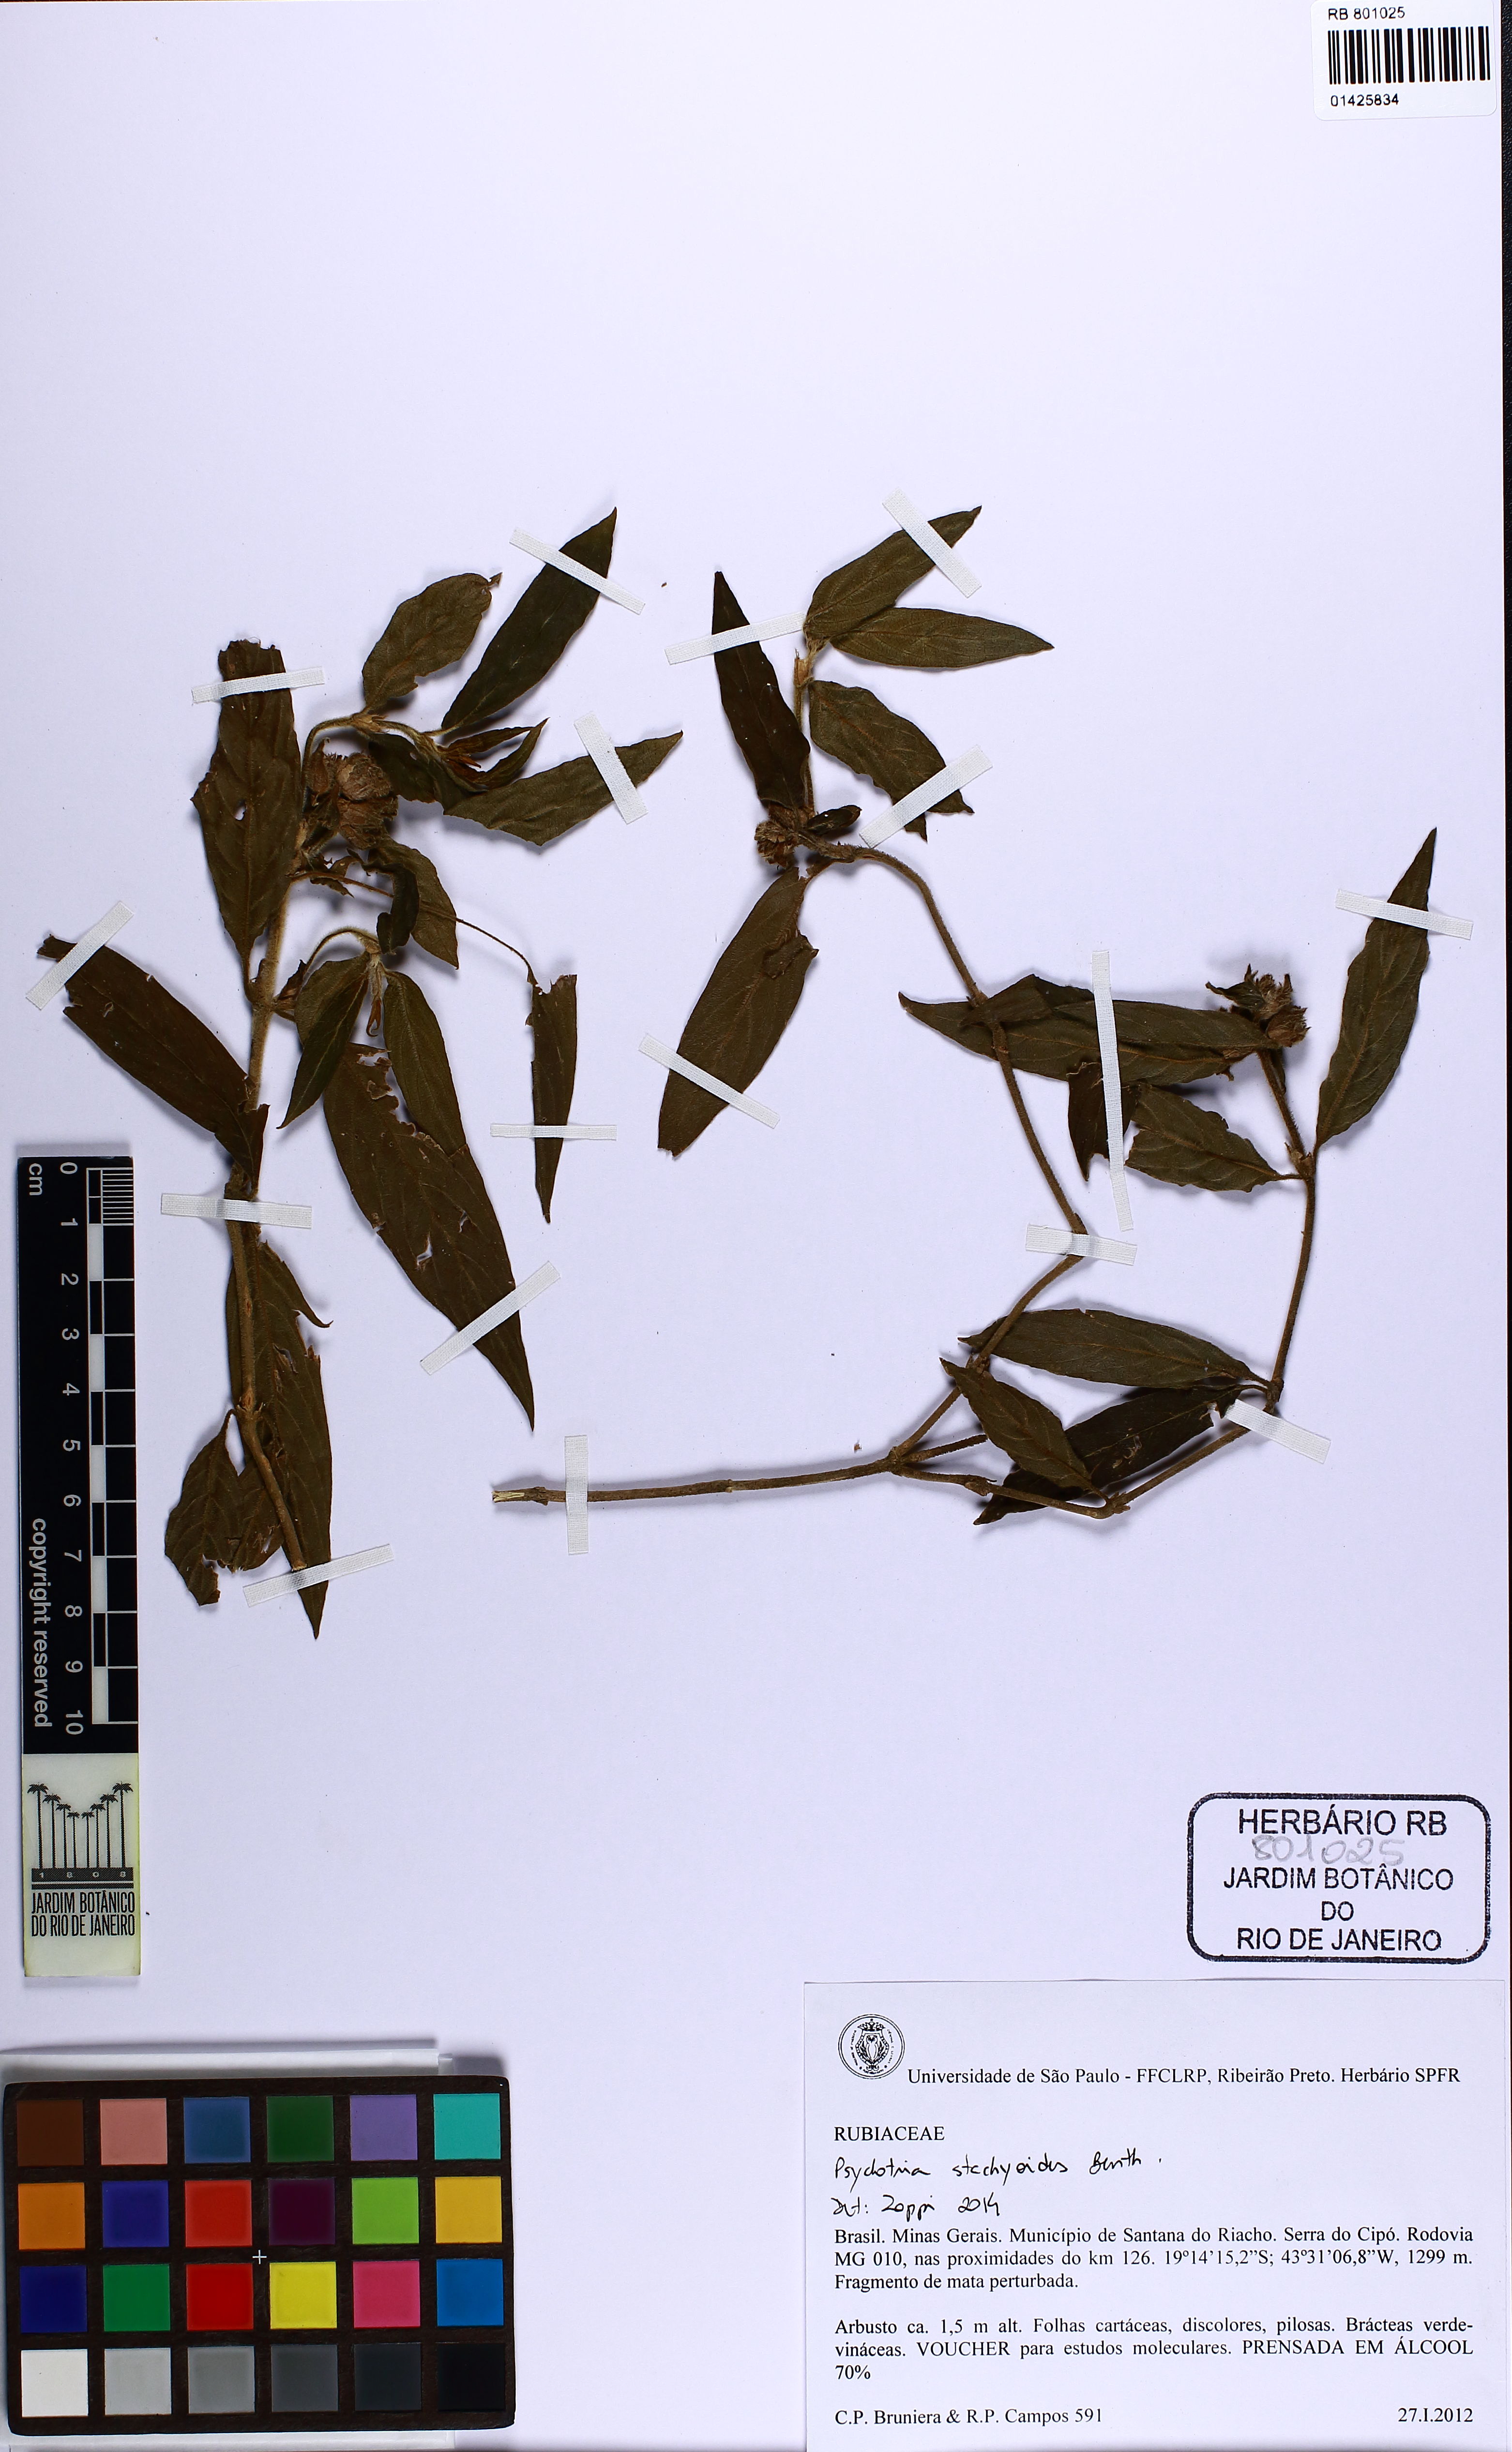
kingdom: Plantae
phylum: Tracheophyta
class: Magnoliopsida
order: Gentianales
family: Rubiaceae
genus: Psychotria
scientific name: Psychotria stachyoides
